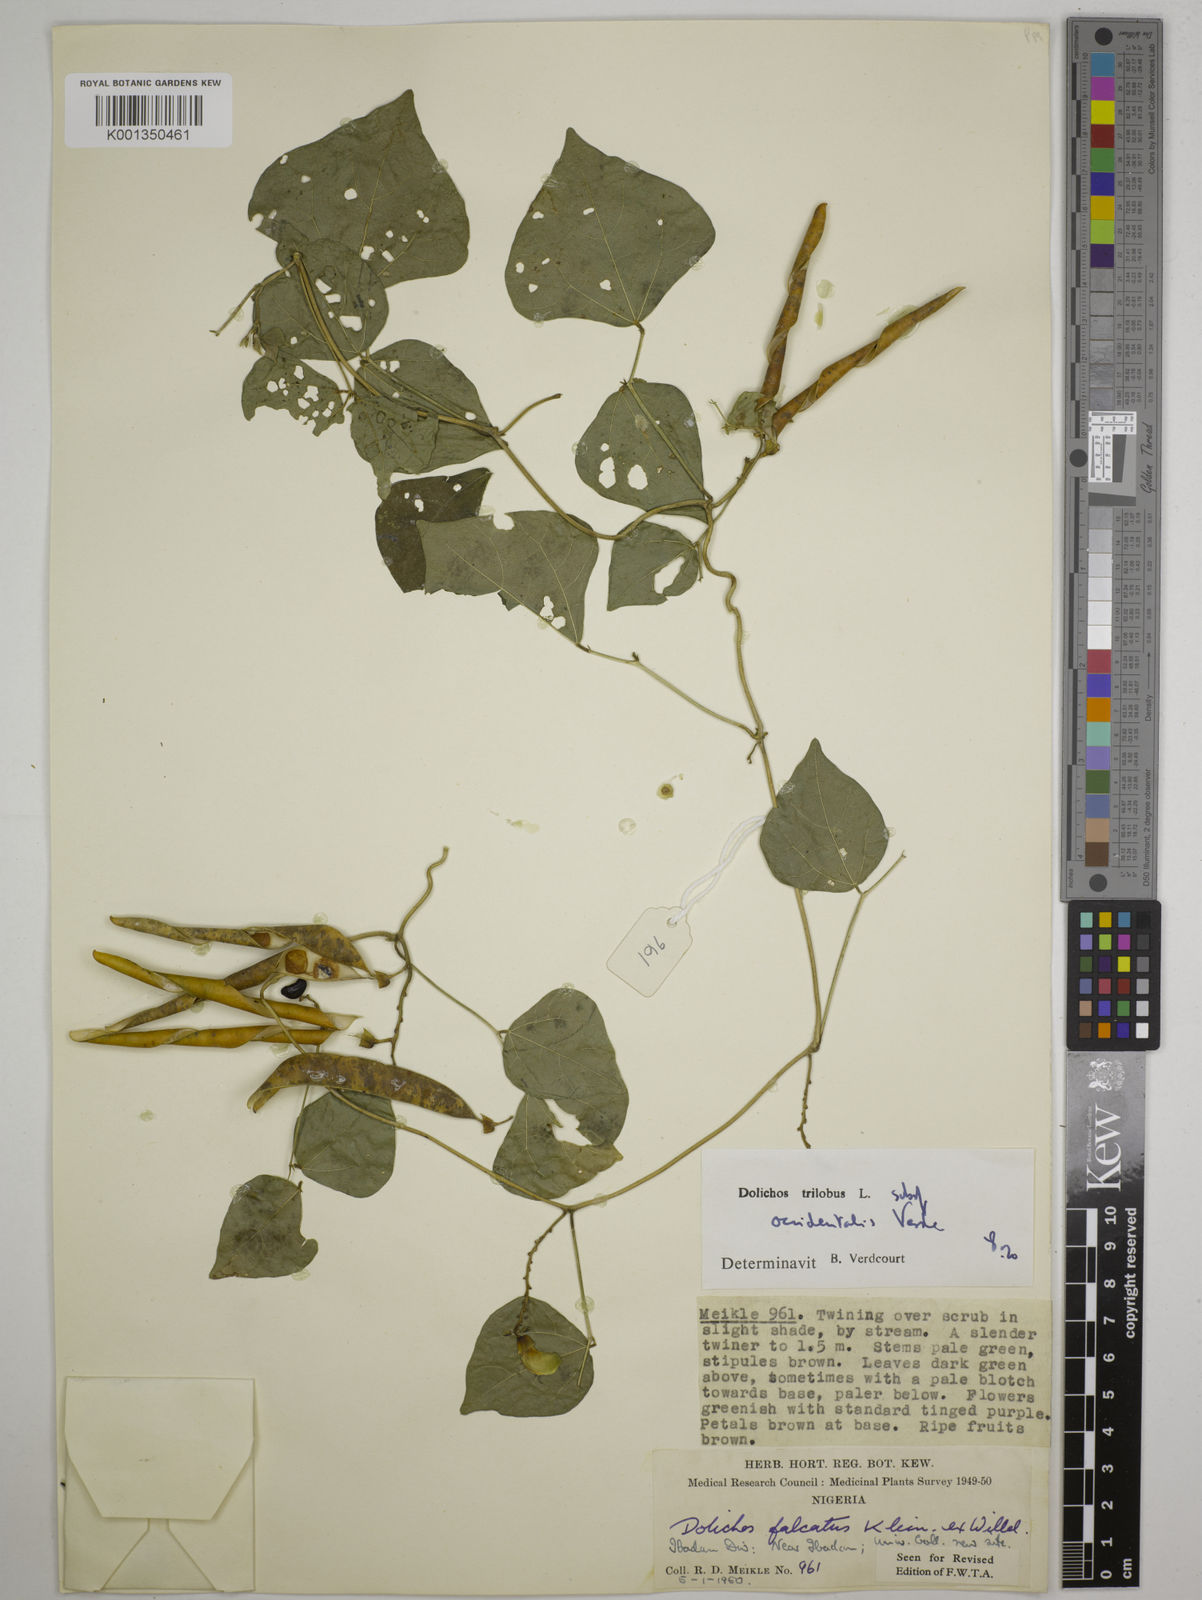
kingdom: Plantae
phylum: Tracheophyta
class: Magnoliopsida
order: Fabales
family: Fabaceae
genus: Dolichos
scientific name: Dolichos
